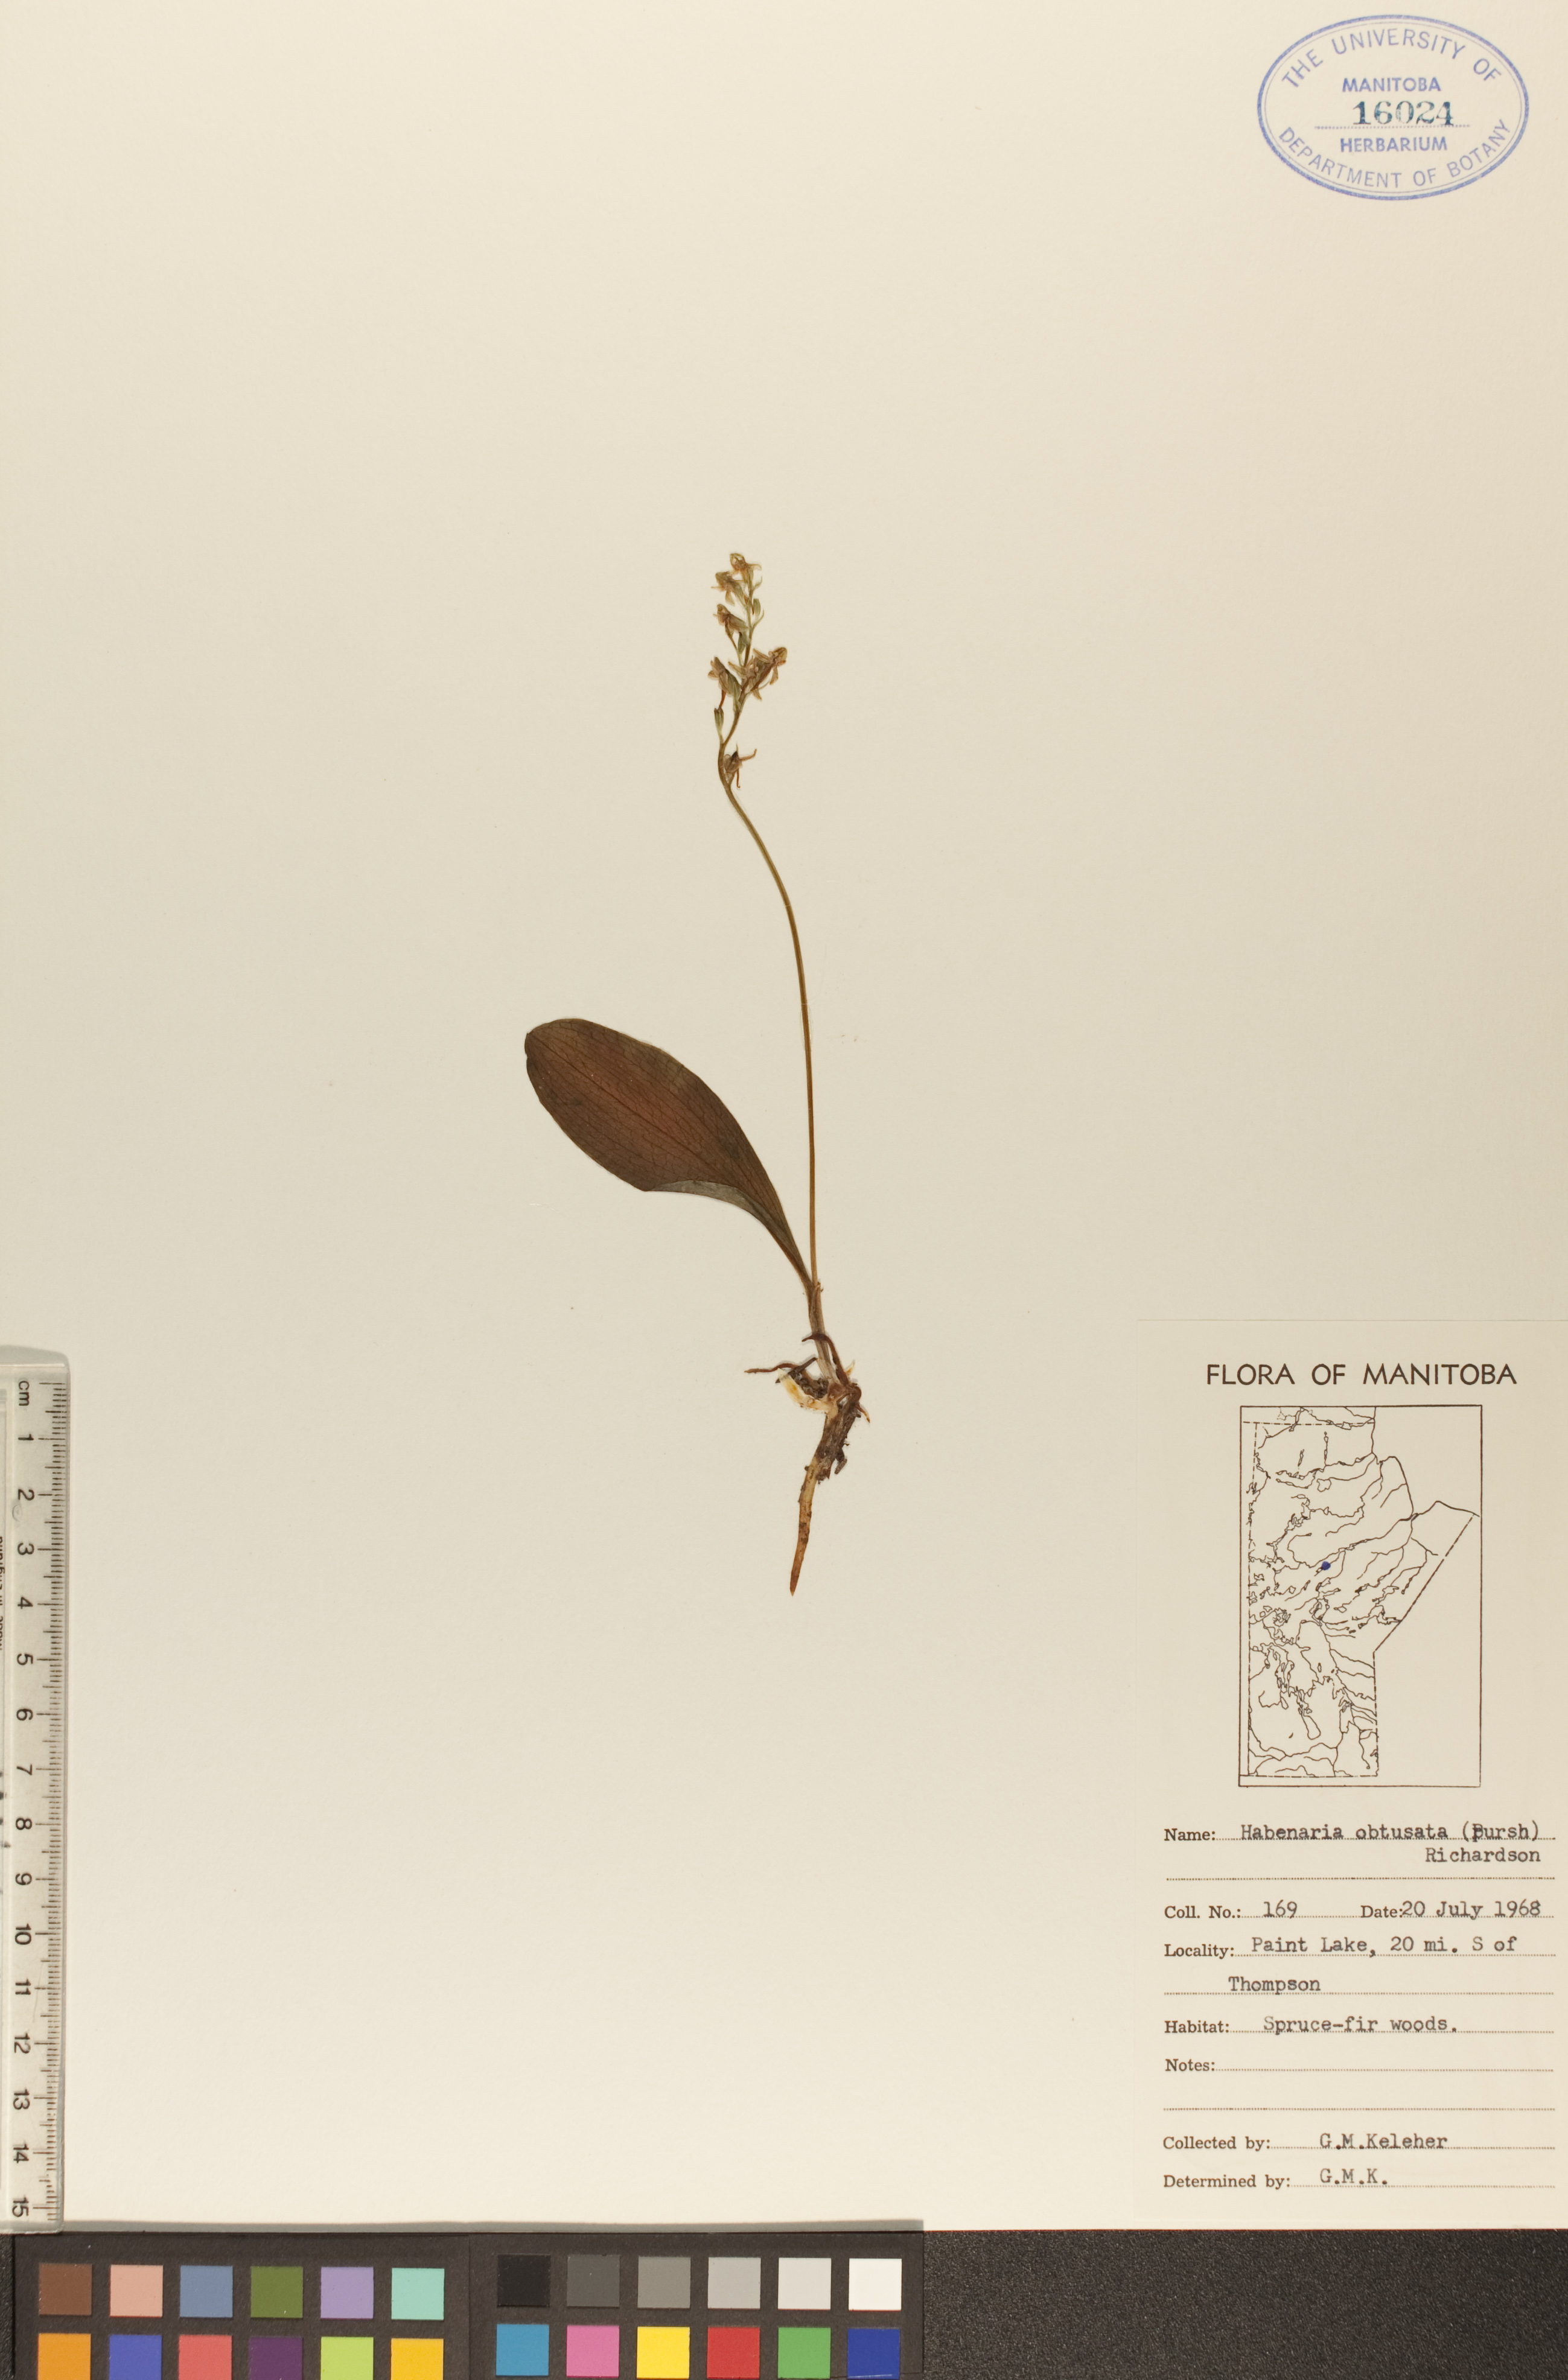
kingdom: Plantae
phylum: Tracheophyta
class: Liliopsida
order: Asparagales
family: Orchidaceae
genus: Platanthera
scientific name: Platanthera obtusata
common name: Blunt bog orchid
